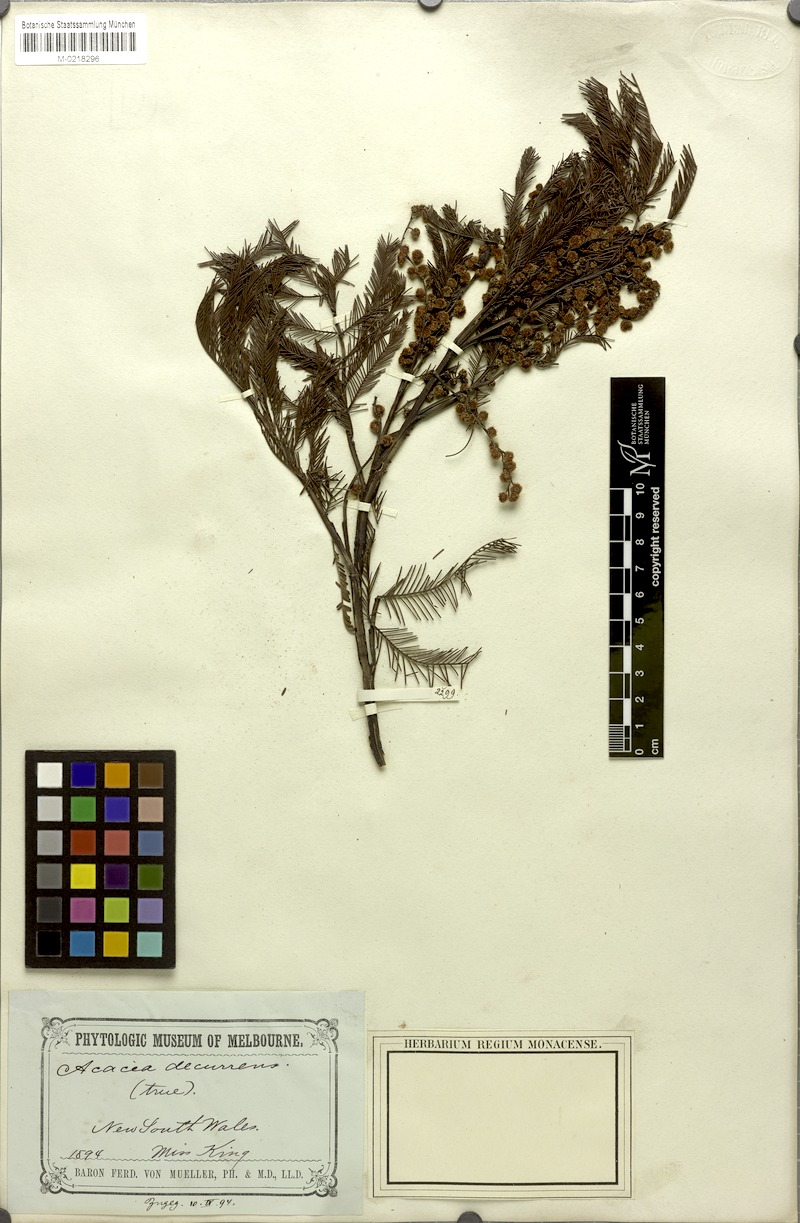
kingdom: Plantae
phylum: Tracheophyta
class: Magnoliopsida
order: Fabales
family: Fabaceae
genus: Acacia
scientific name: Acacia decurrens
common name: Green wattle
